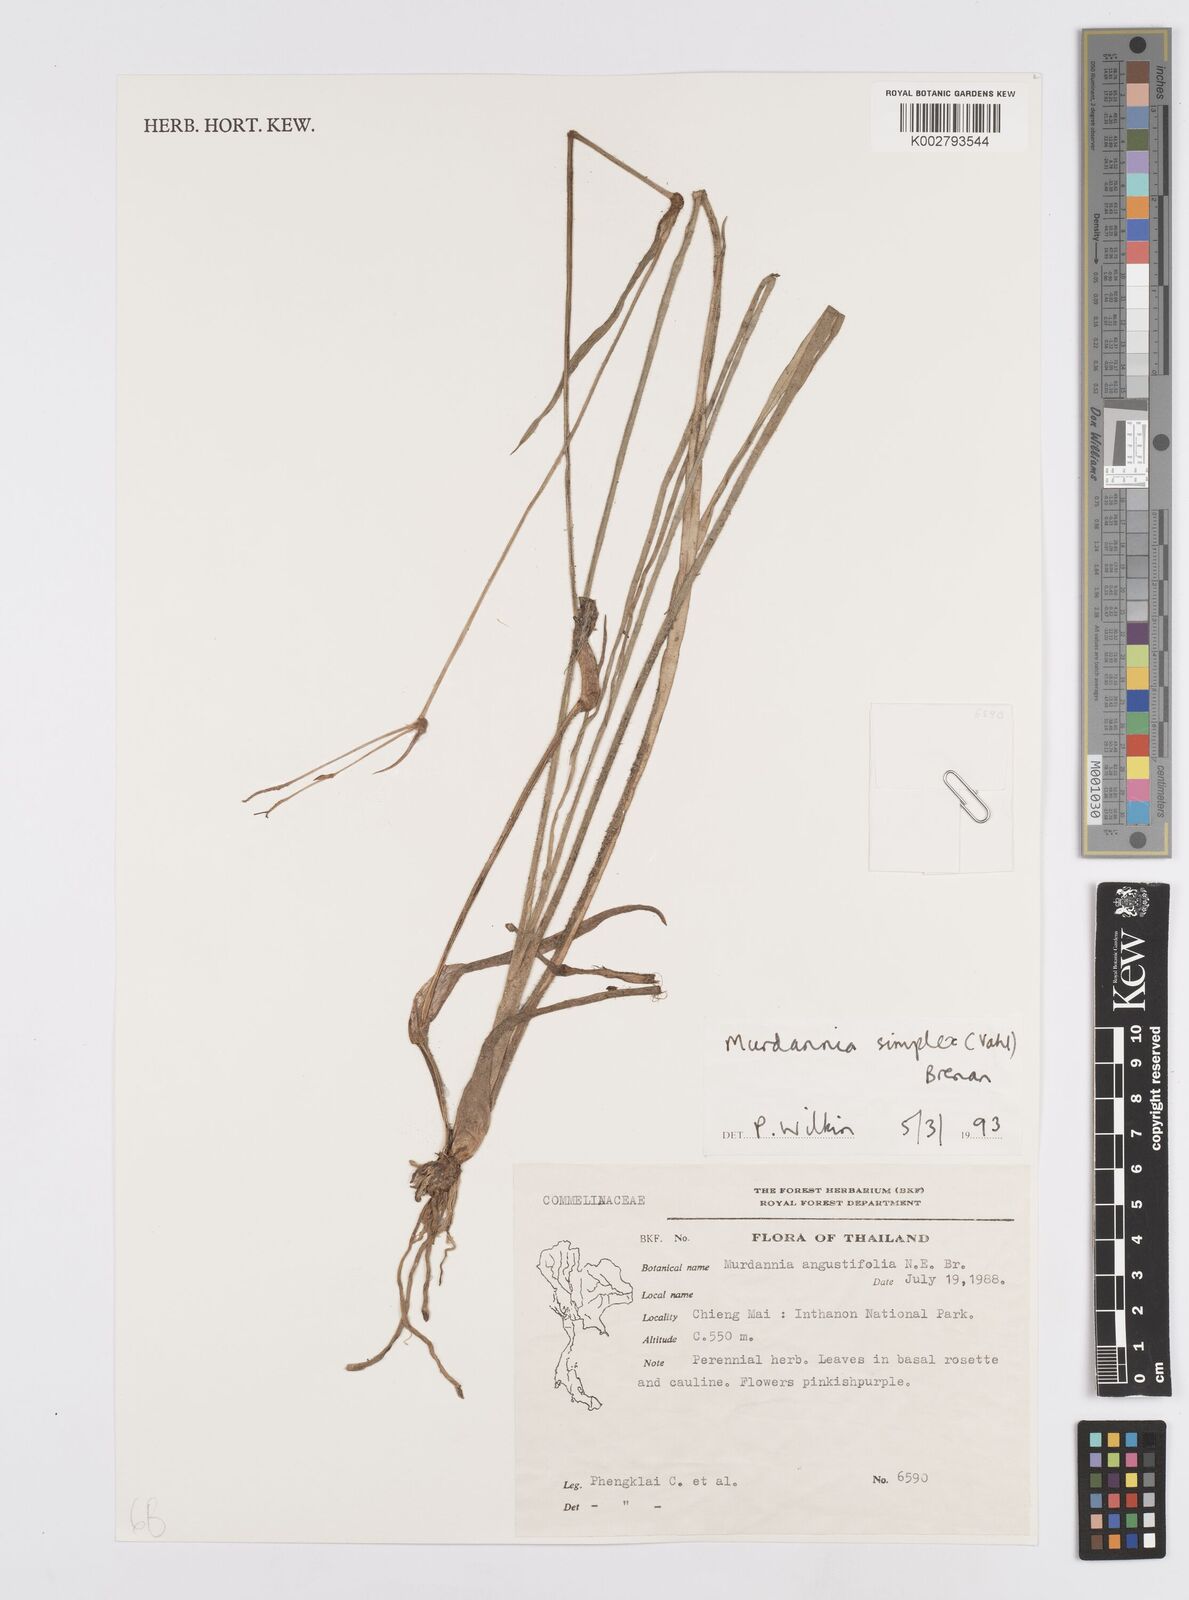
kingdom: Plantae
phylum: Tracheophyta
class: Liliopsida
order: Commelinales
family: Commelinaceae
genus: Murdannia
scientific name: Murdannia simplex
